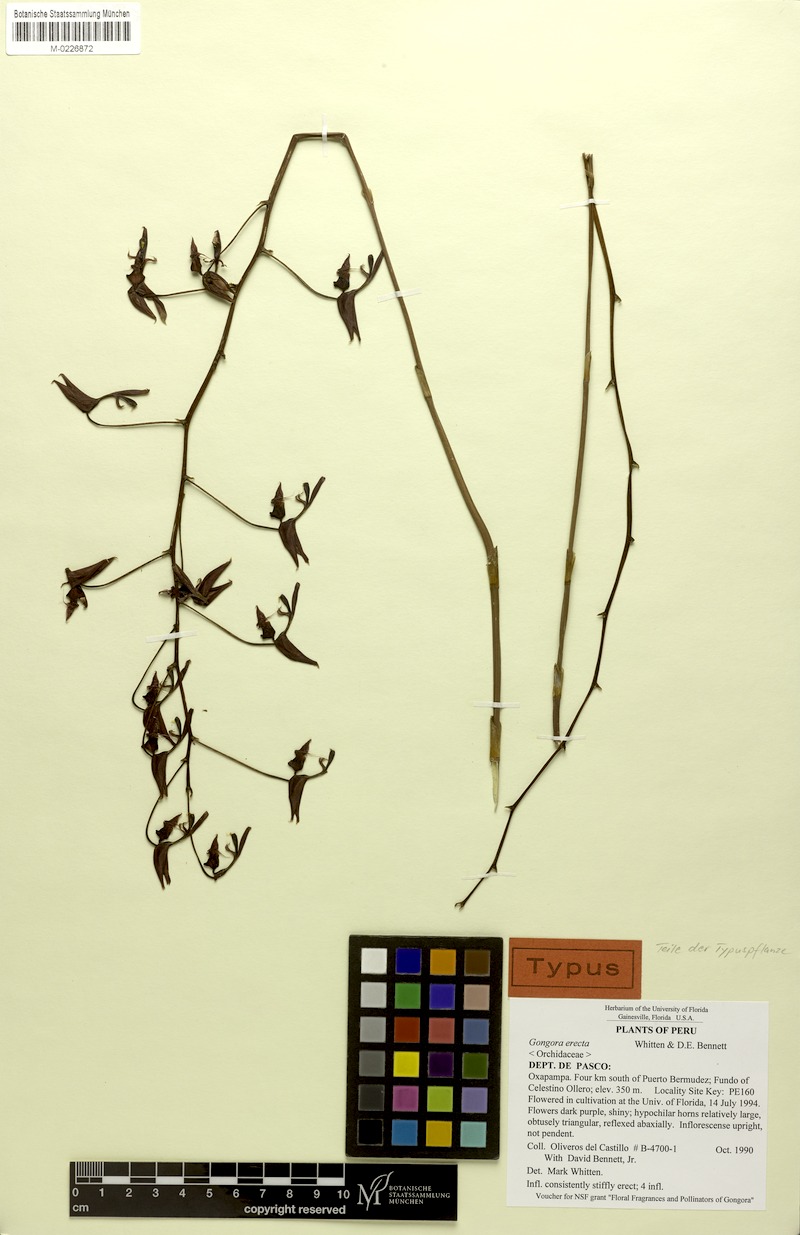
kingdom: Plantae
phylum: Tracheophyta
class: Liliopsida
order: Asparagales
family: Orchidaceae
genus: Gongora
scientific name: Gongora erecta
